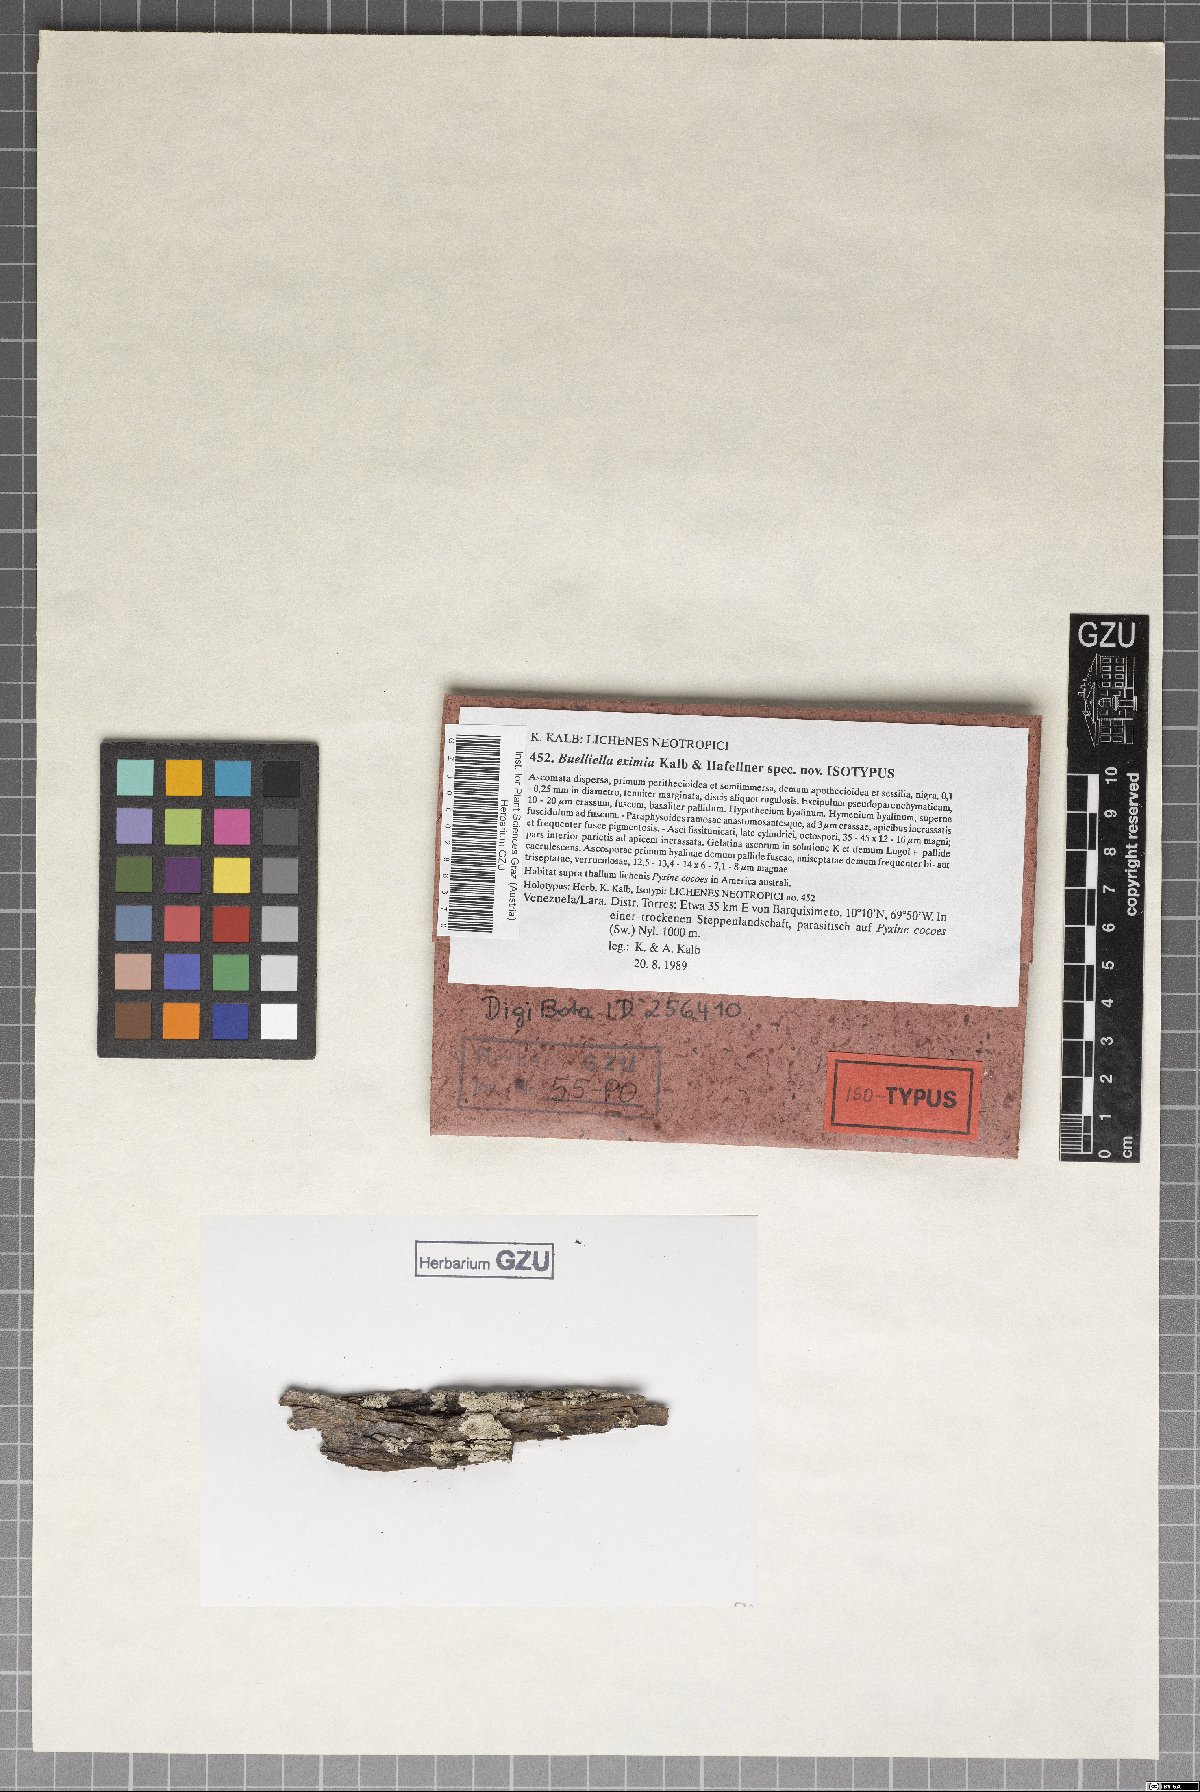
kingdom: Fungi
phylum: Ascomycota
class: Dothideomycetes
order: Dothideales
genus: Buelliella
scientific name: Buelliella eximia
